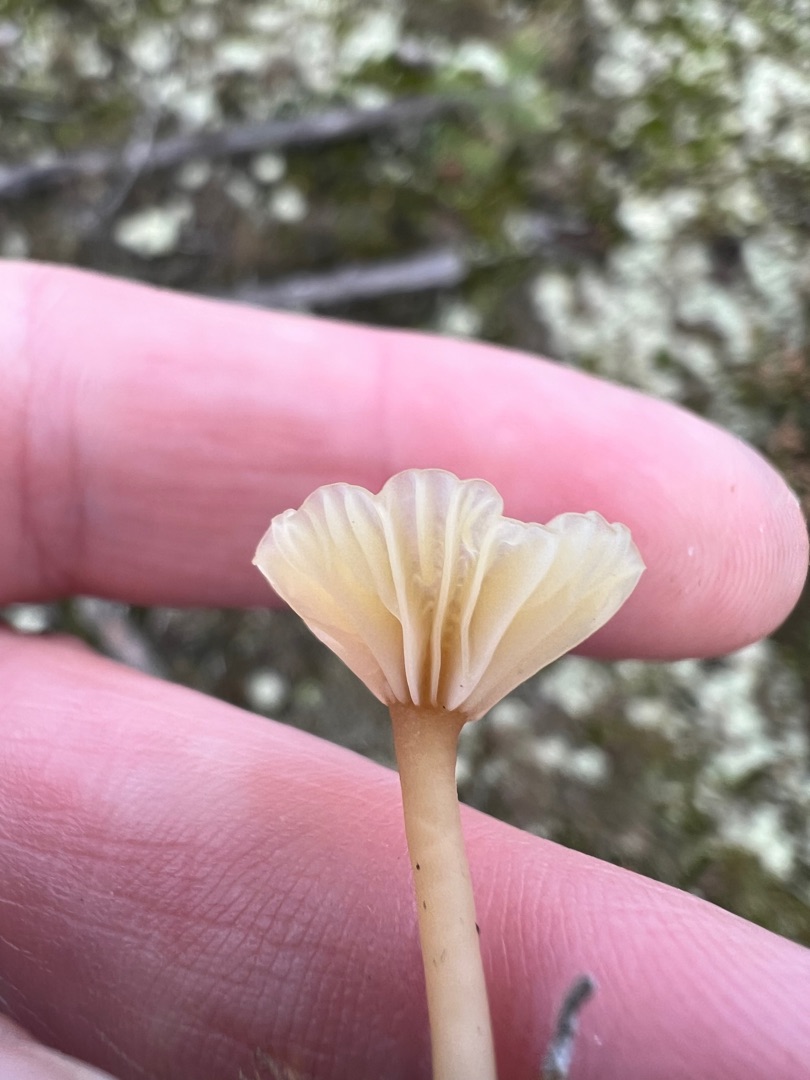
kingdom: Fungi
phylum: Basidiomycota
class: Agaricomycetes
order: Agaricales
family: Hygrophoraceae
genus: Lichenomphalia
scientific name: Lichenomphalia umbellifera
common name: Tørve-lavhat
